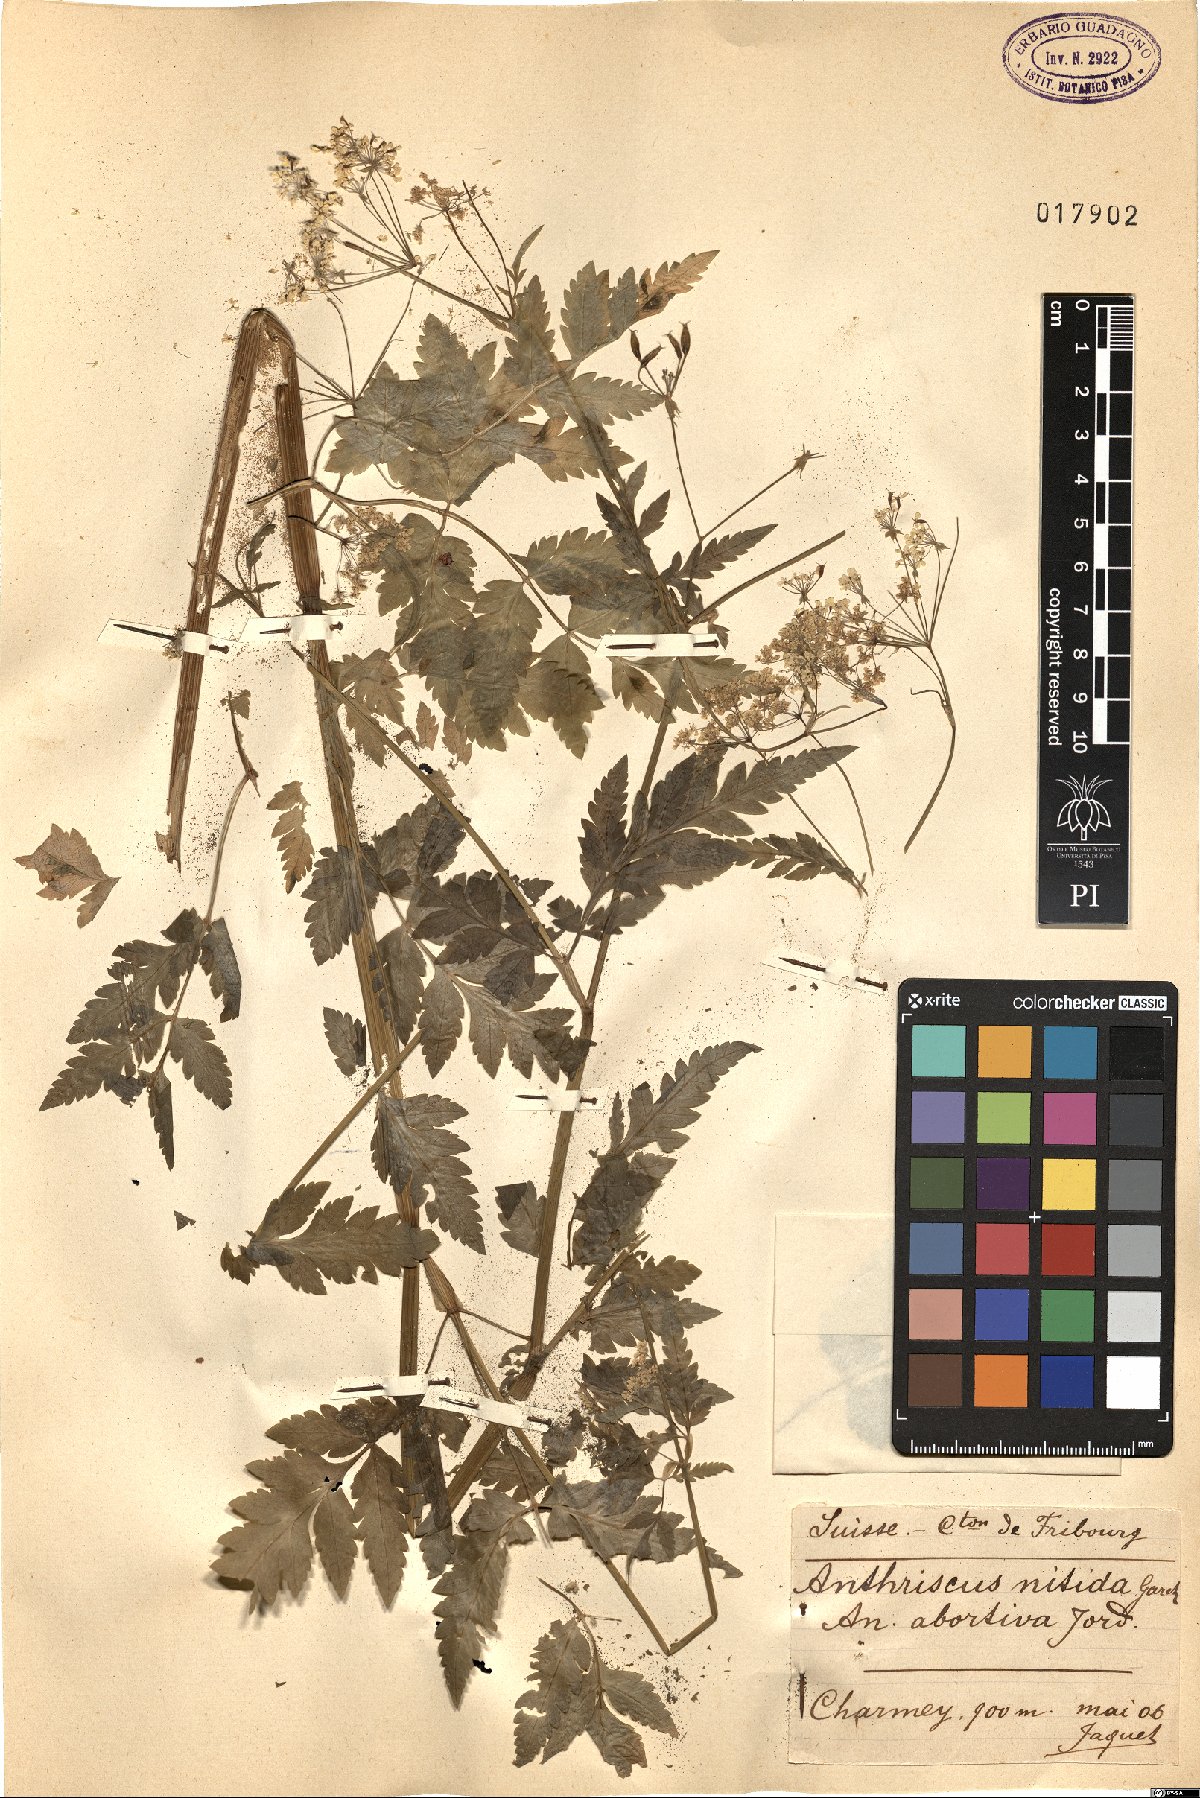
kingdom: Plantae
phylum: Tracheophyta
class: Magnoliopsida
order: Apiales
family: Apiaceae
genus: Anthriscus
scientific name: Anthriscus nitida
